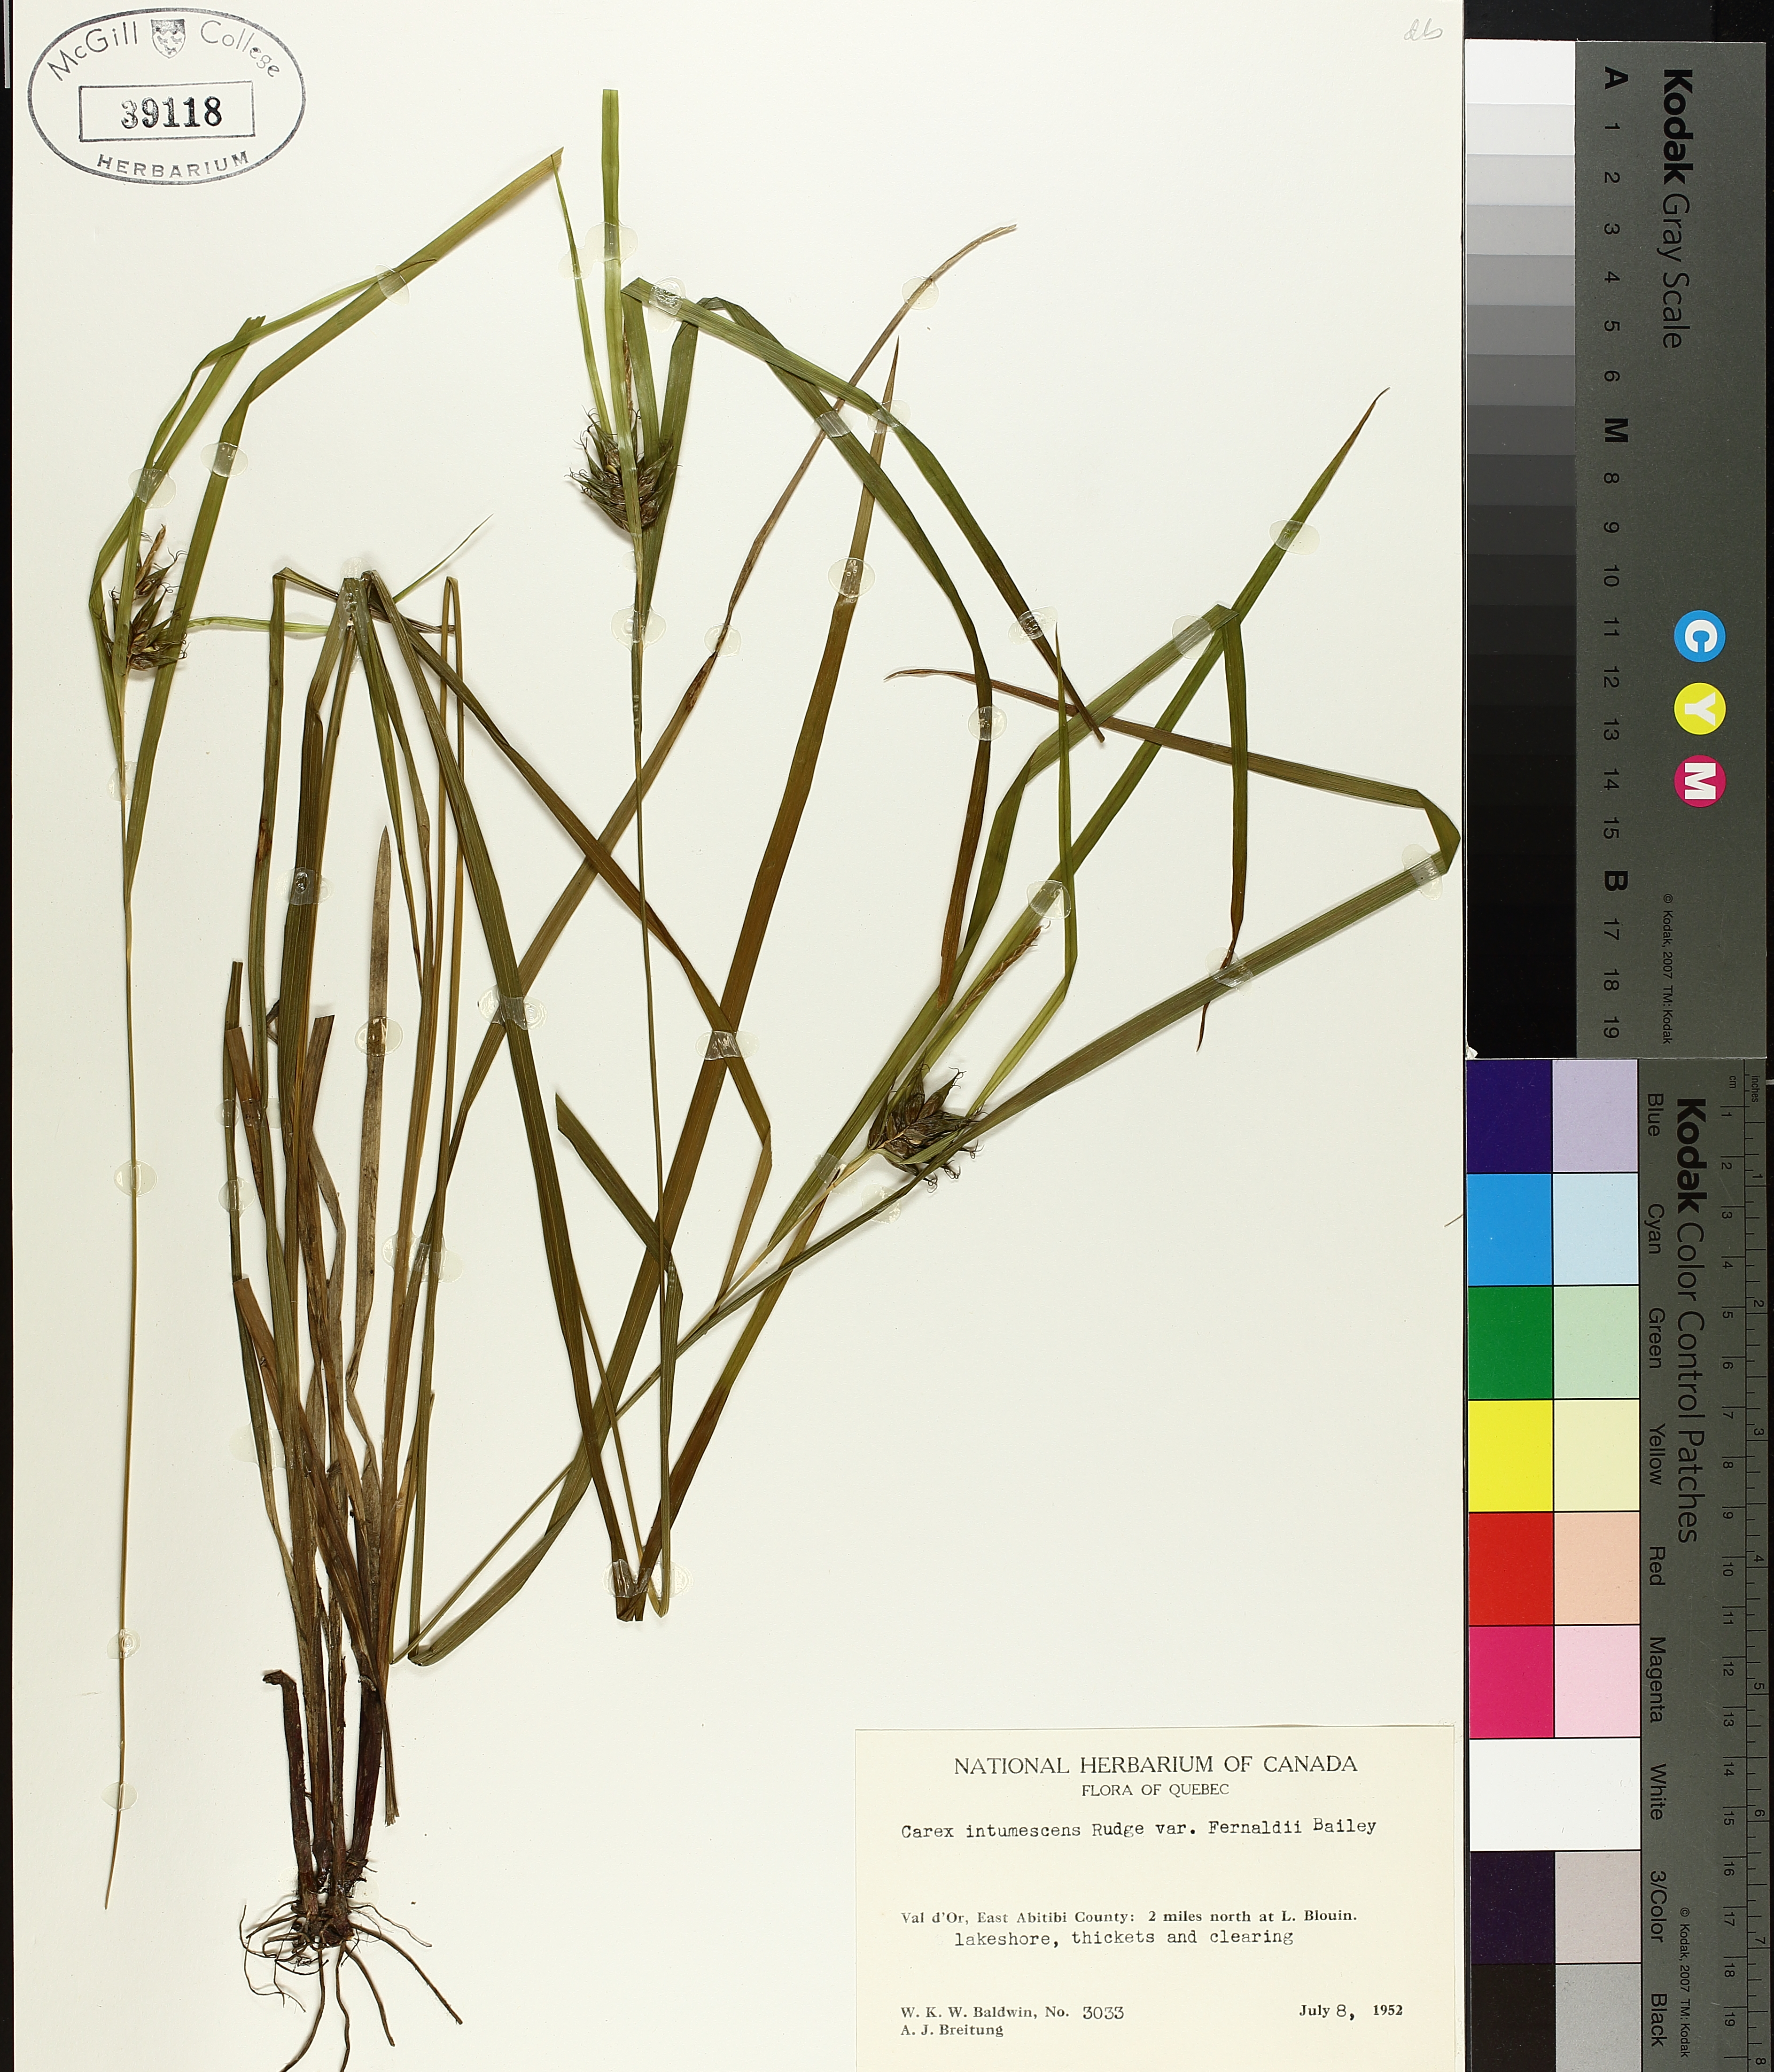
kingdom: Plantae
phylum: Tracheophyta
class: Liliopsida
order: Poales
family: Cyperaceae
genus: Carex
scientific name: Carex intumescens
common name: Greater bladder sedge
